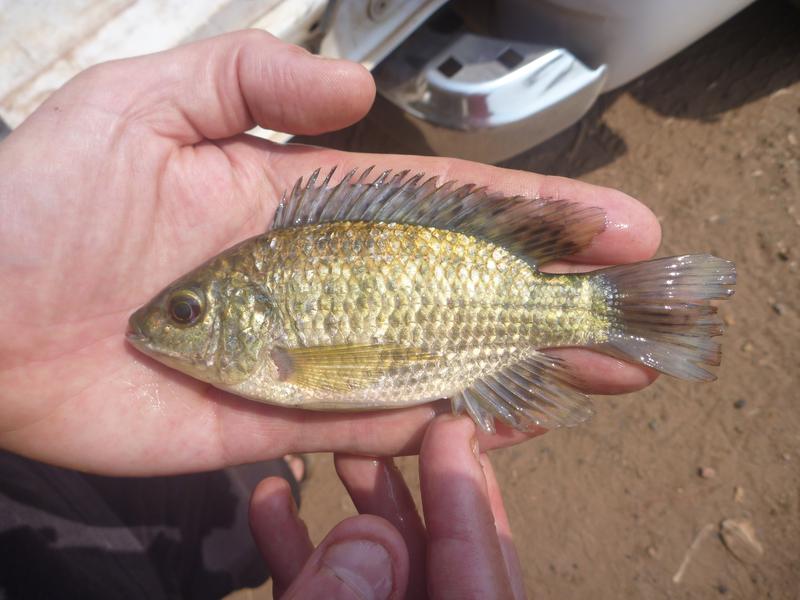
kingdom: Animalia
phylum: Chordata
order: Perciformes
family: Cichlidae
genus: Oreochromis
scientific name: Oreochromis leucostictus
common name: Blue spotted tilapia
